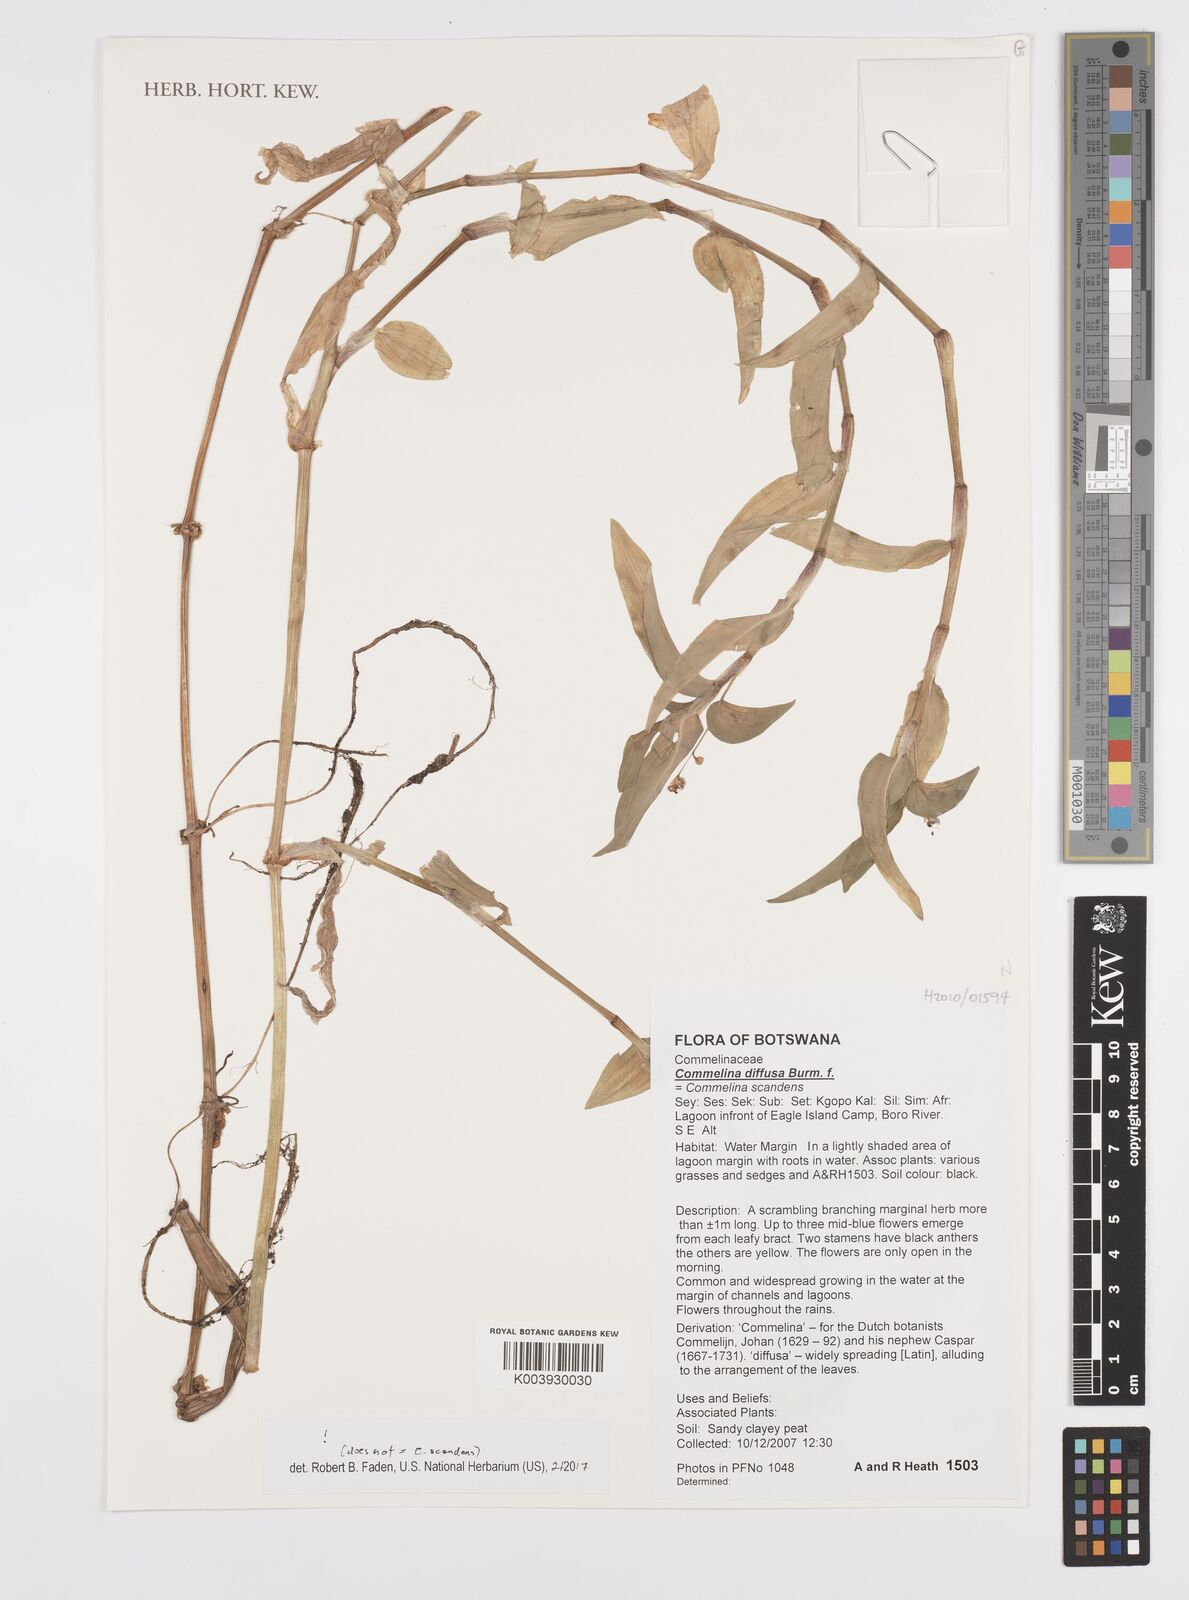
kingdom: Plantae
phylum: Tracheophyta
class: Liliopsida
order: Commelinales
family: Commelinaceae
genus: Commelina
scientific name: Commelina diffusa
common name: Climbing dayflower
